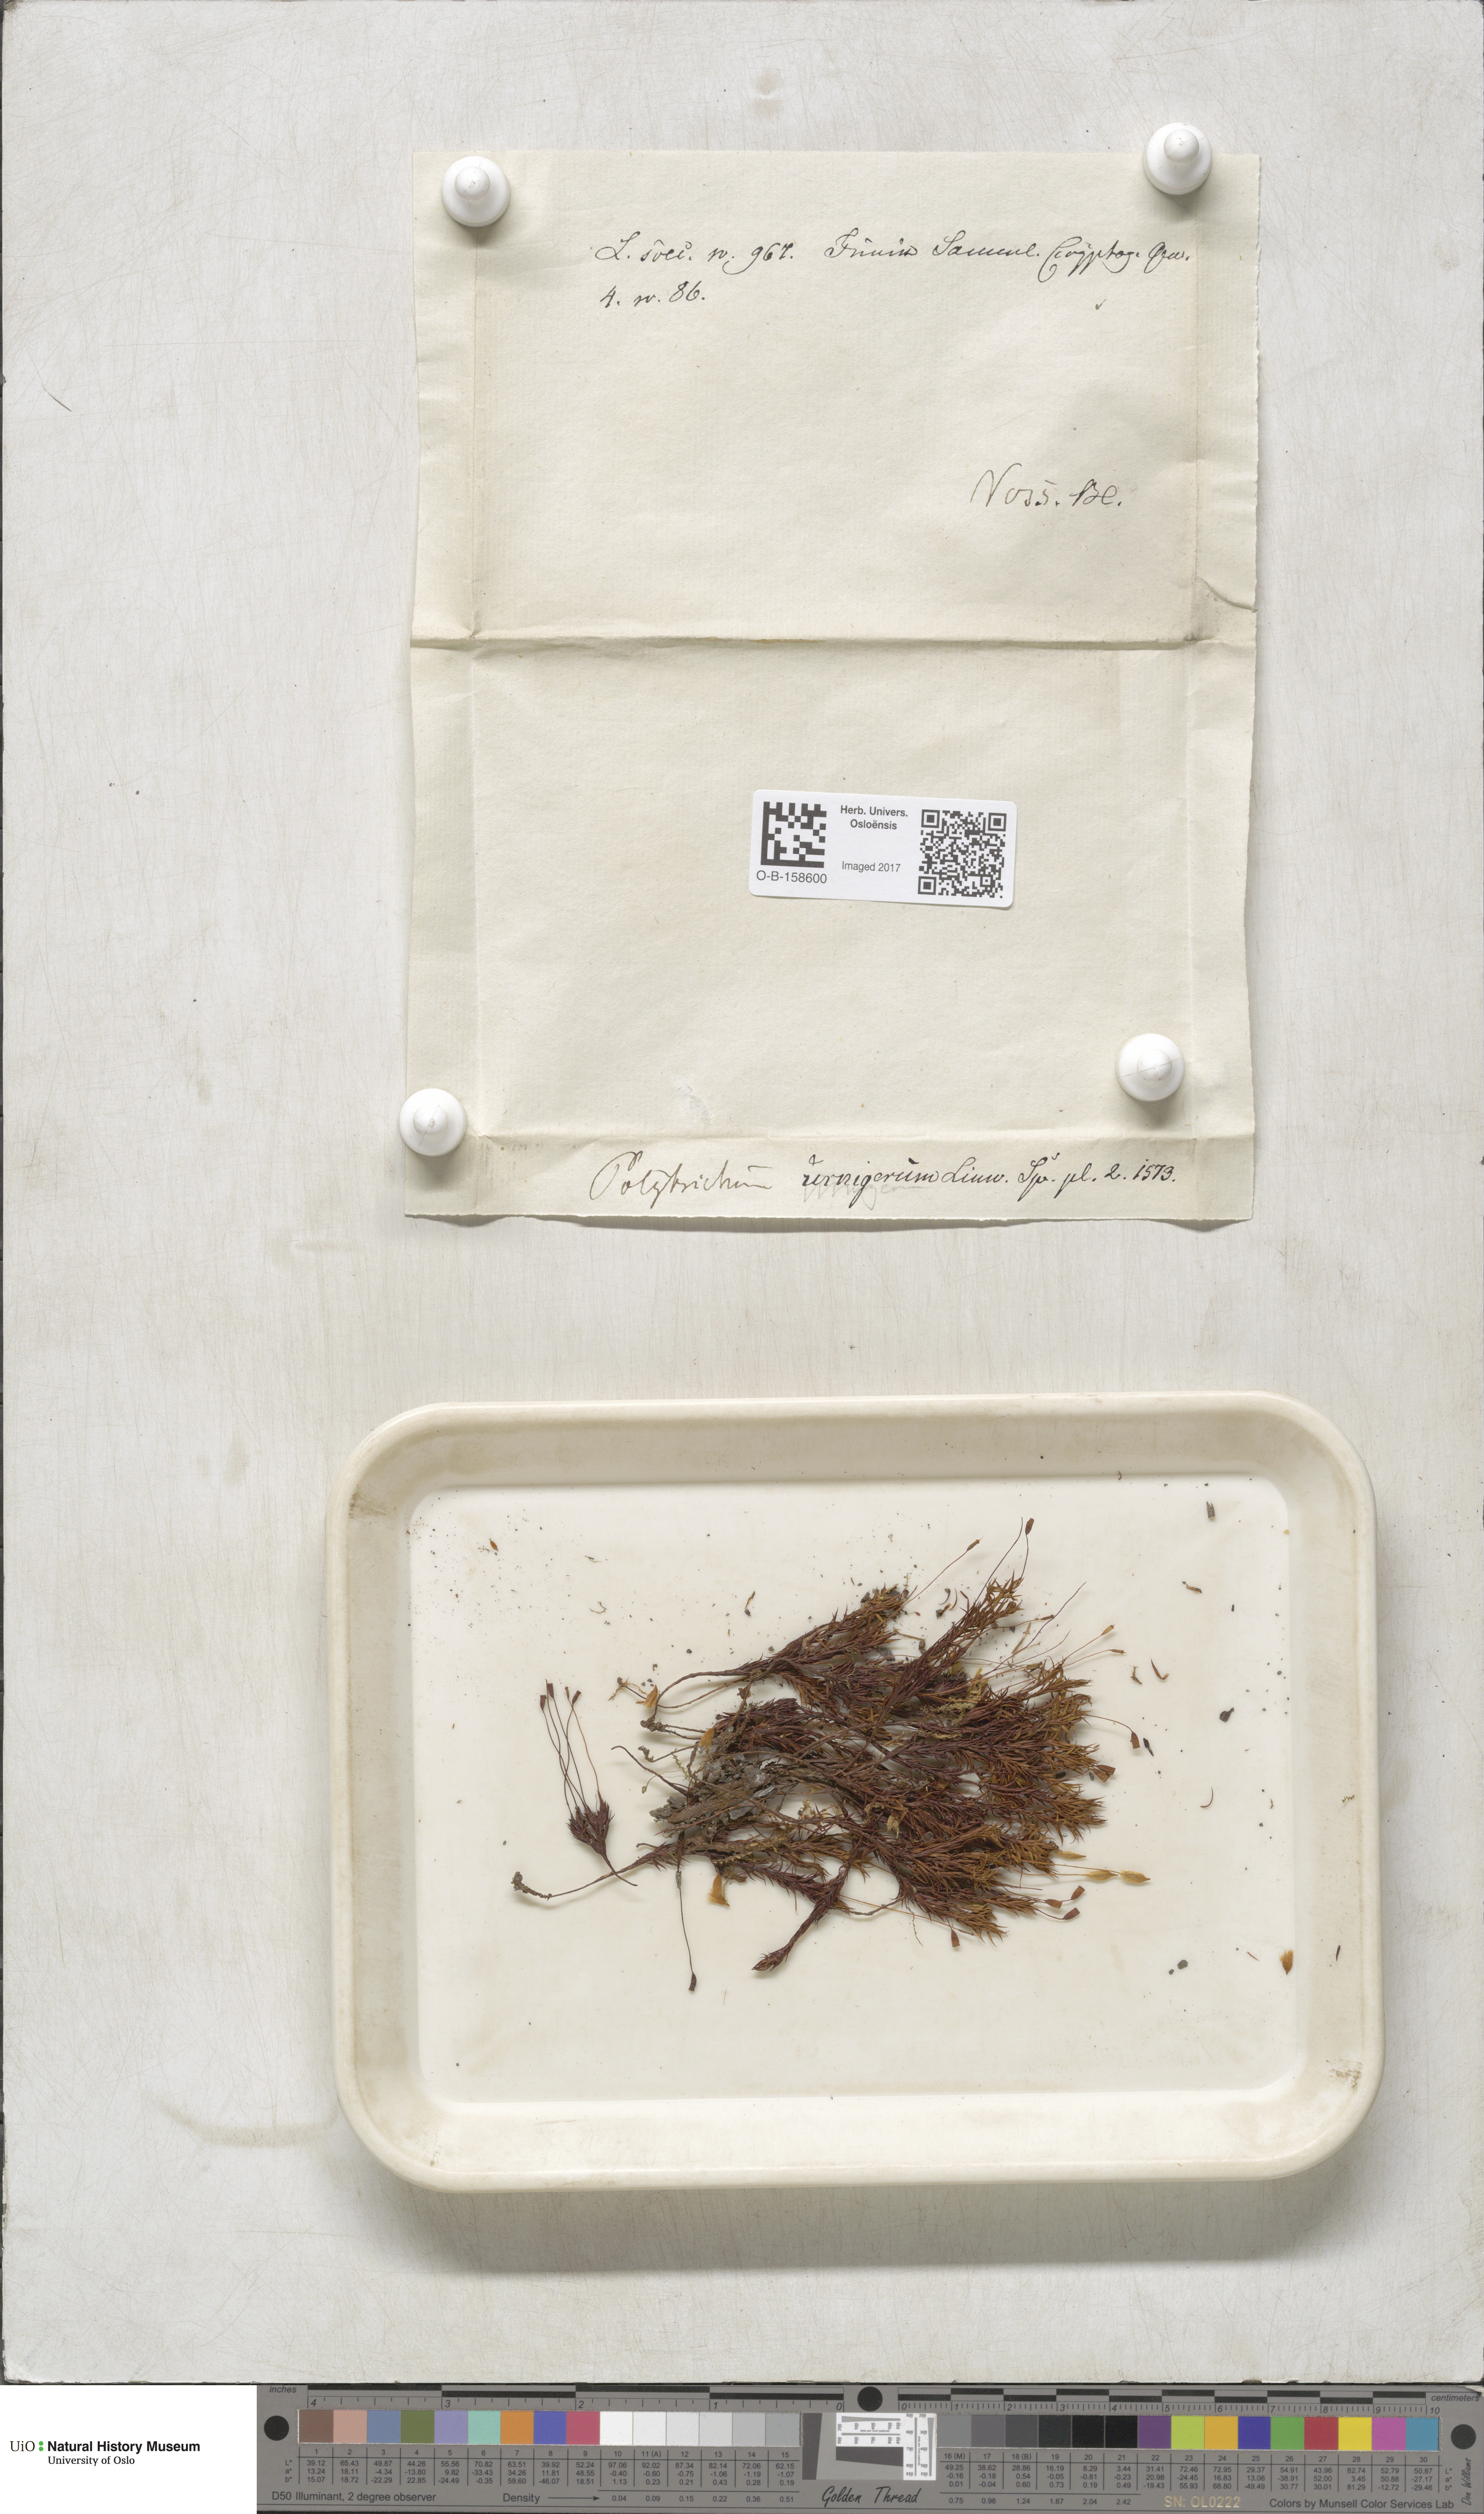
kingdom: Plantae
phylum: Bryophyta
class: Polytrichopsida
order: Polytrichales
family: Polytrichaceae
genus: Pogonatum
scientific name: Pogonatum urnigerum
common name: Urn hair moss
